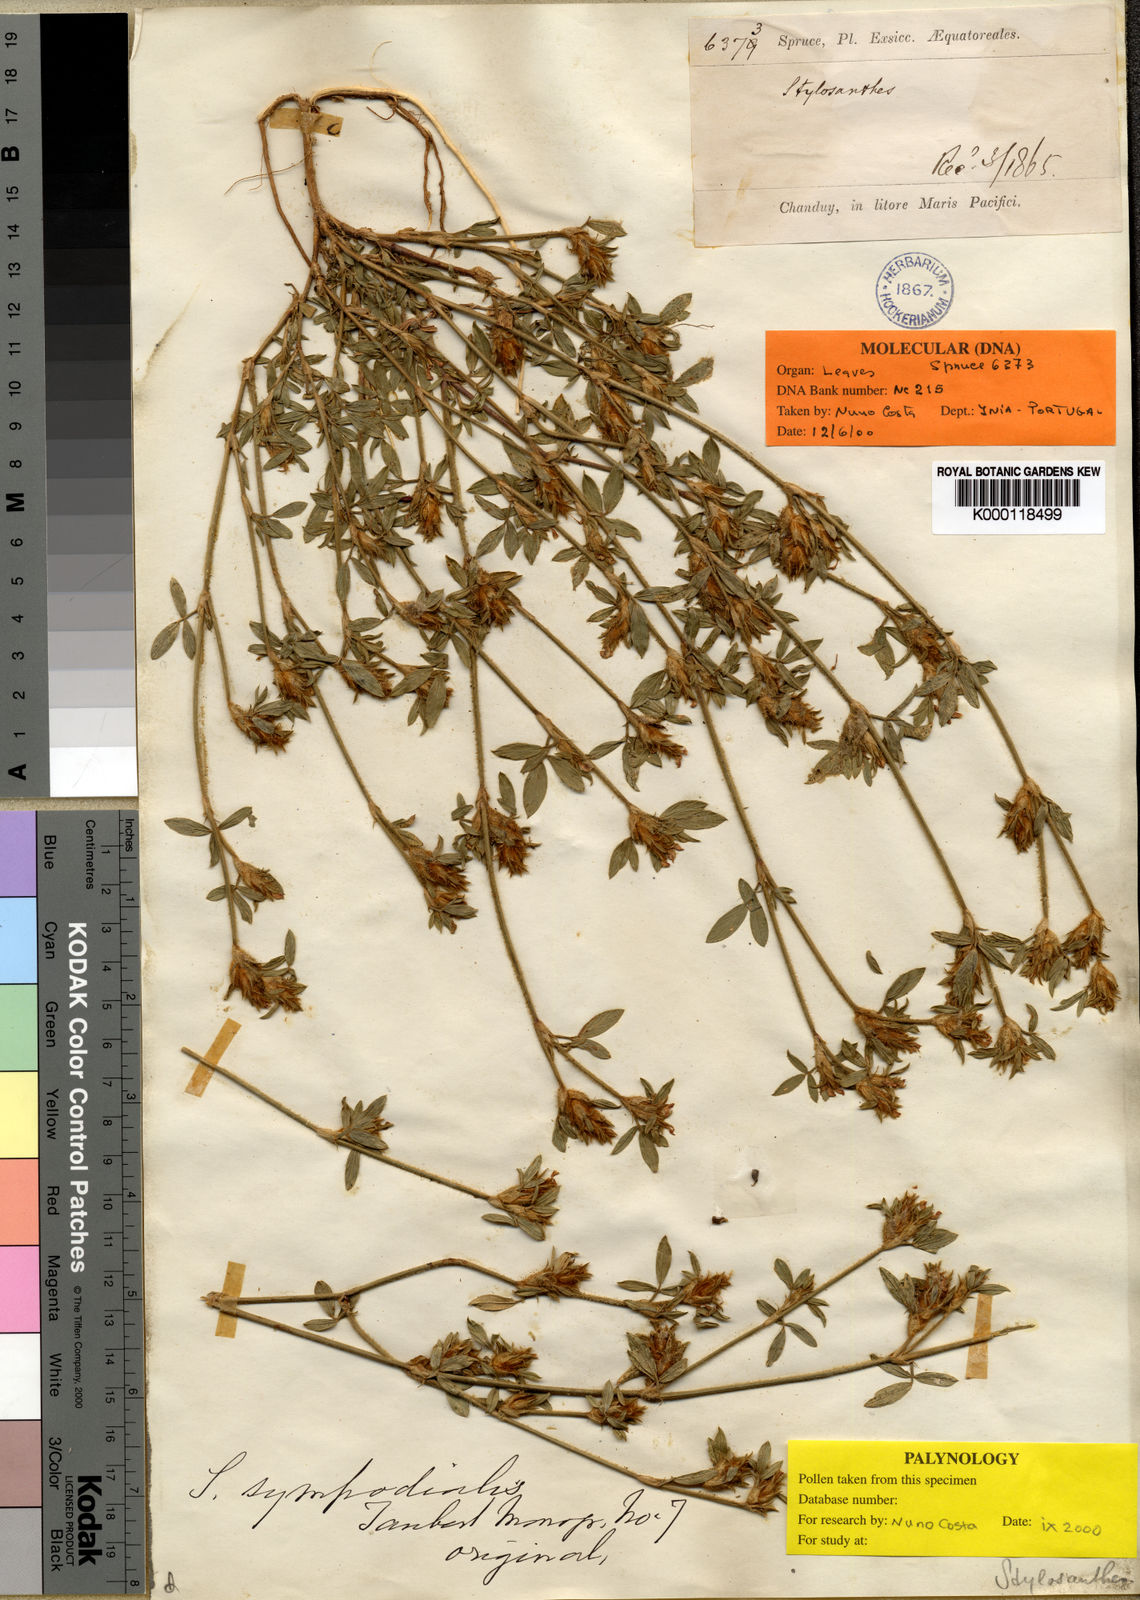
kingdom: Plantae
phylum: Tracheophyta
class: Magnoliopsida
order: Fabales
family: Fabaceae
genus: Stylosanthes
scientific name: Stylosanthes sympodialis
